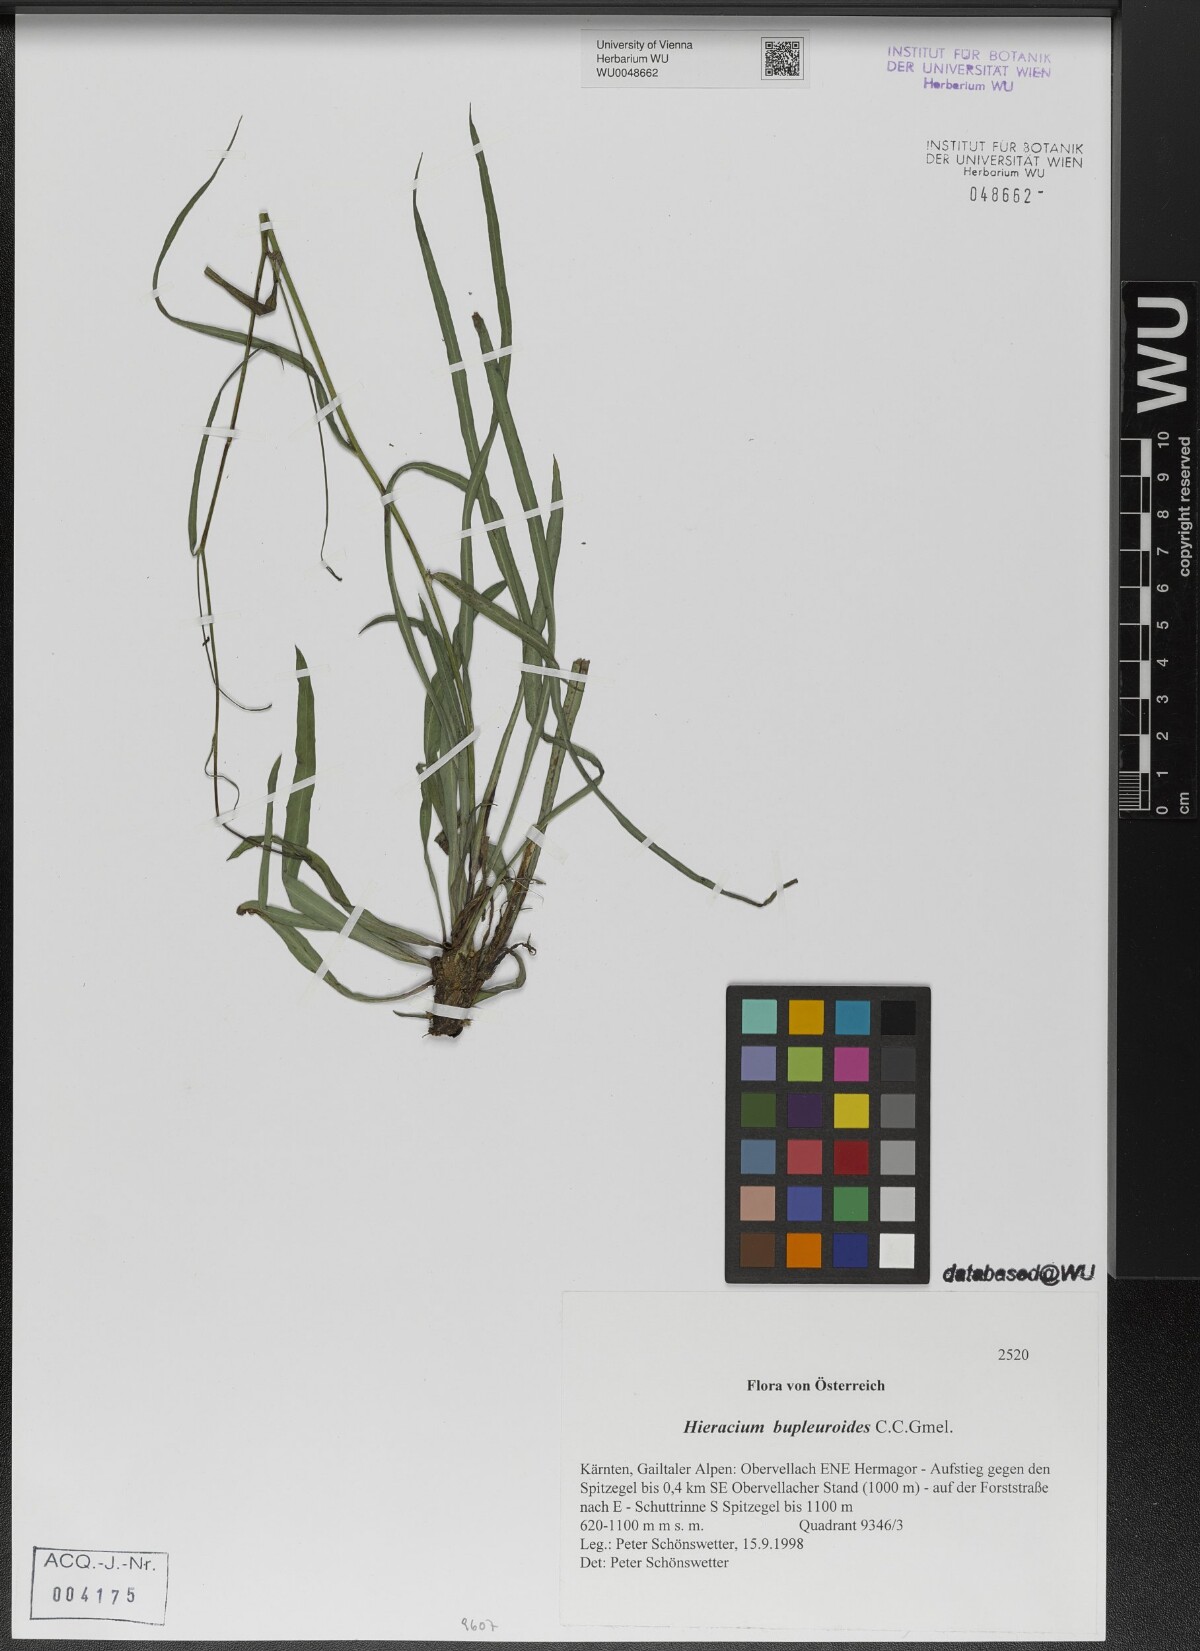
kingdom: Plantae
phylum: Tracheophyta
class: Magnoliopsida
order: Asterales
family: Asteraceae
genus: Hieracium
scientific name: Hieracium bupleuroides
